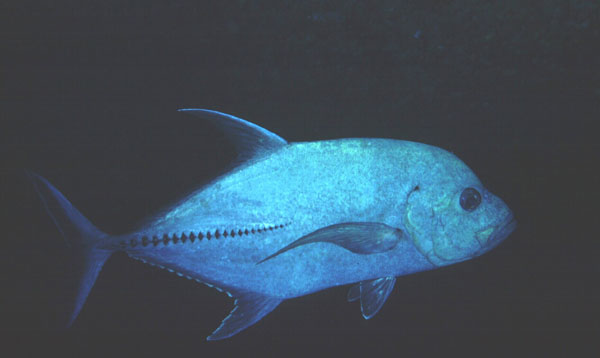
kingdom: Animalia
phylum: Chordata
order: Perciformes
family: Carangidae
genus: Caranx
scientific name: Caranx lugubris
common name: Black jack
